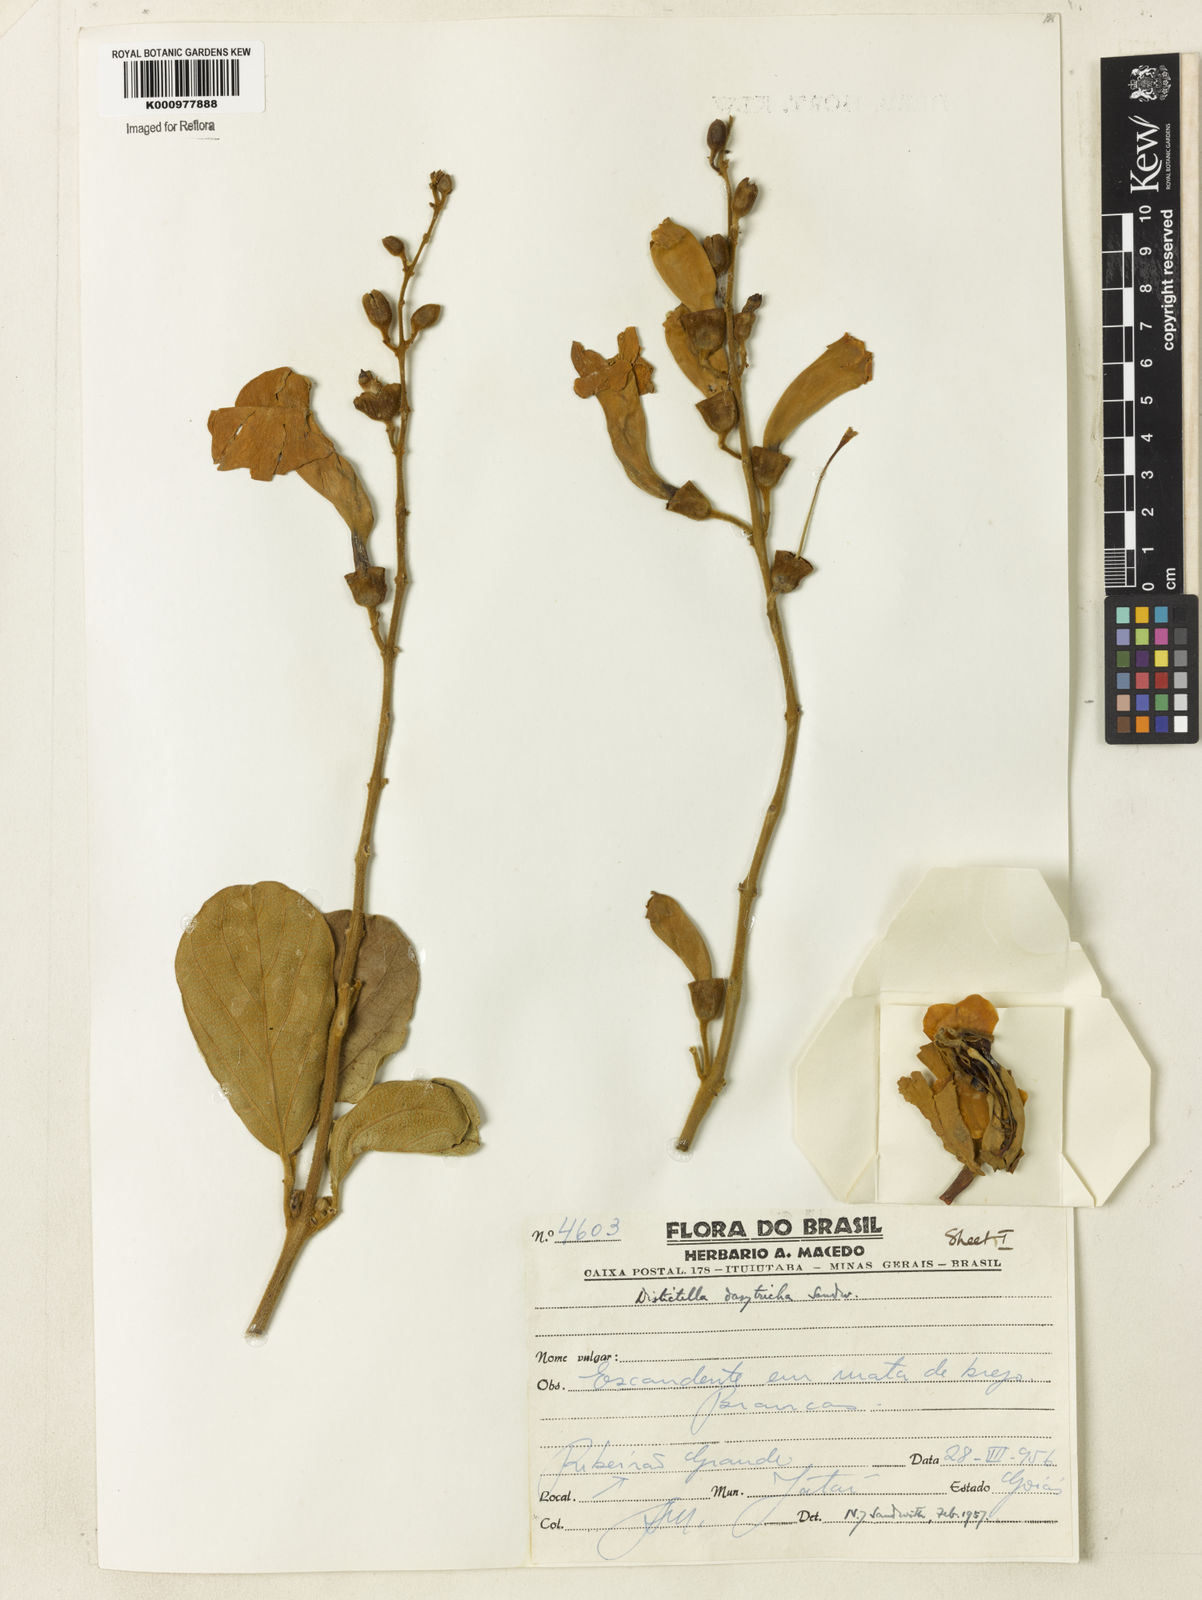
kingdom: Plantae
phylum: Tracheophyta
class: Magnoliopsida
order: Lamiales
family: Bignoniaceae
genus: Amphilophium
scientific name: Amphilophium dasytrichum
